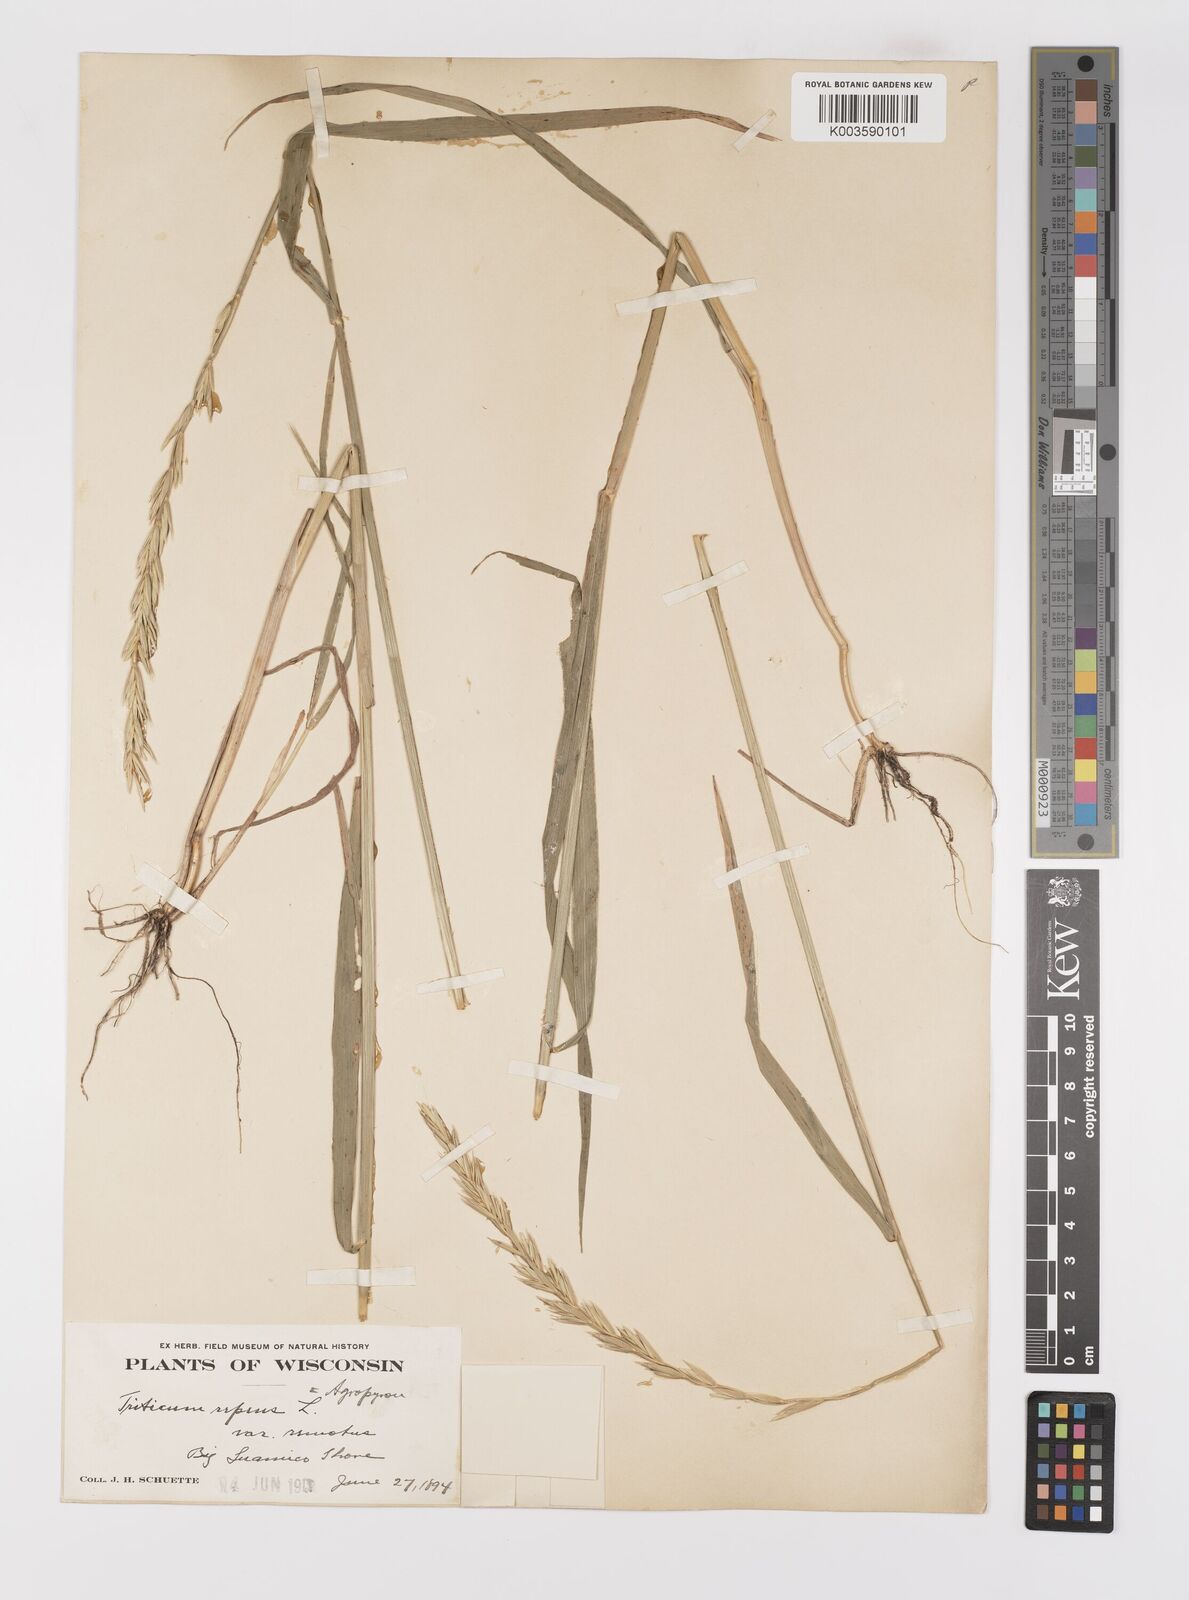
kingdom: Plantae
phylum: Tracheophyta
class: Liliopsida
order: Poales
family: Poaceae
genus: Elymus
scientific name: Elymus repens
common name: Quackgrass
